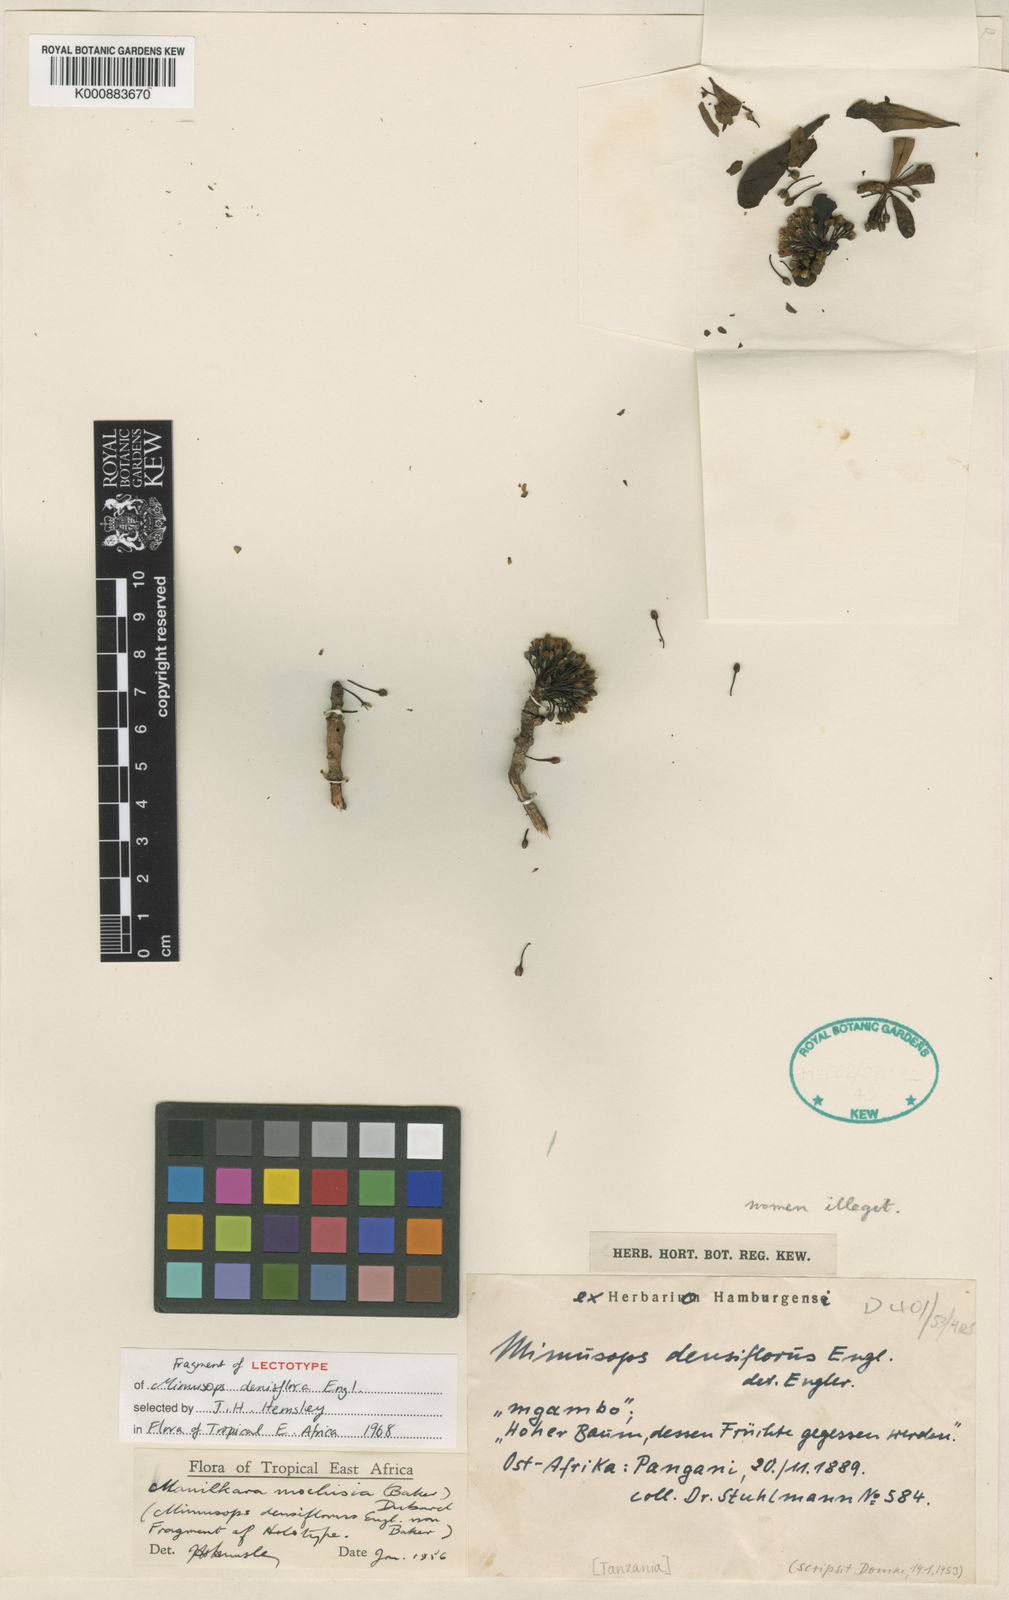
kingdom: Plantae
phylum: Tracheophyta
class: Magnoliopsida
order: Ericales
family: Sapotaceae
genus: Manilkara
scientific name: Manilkara mochisia
